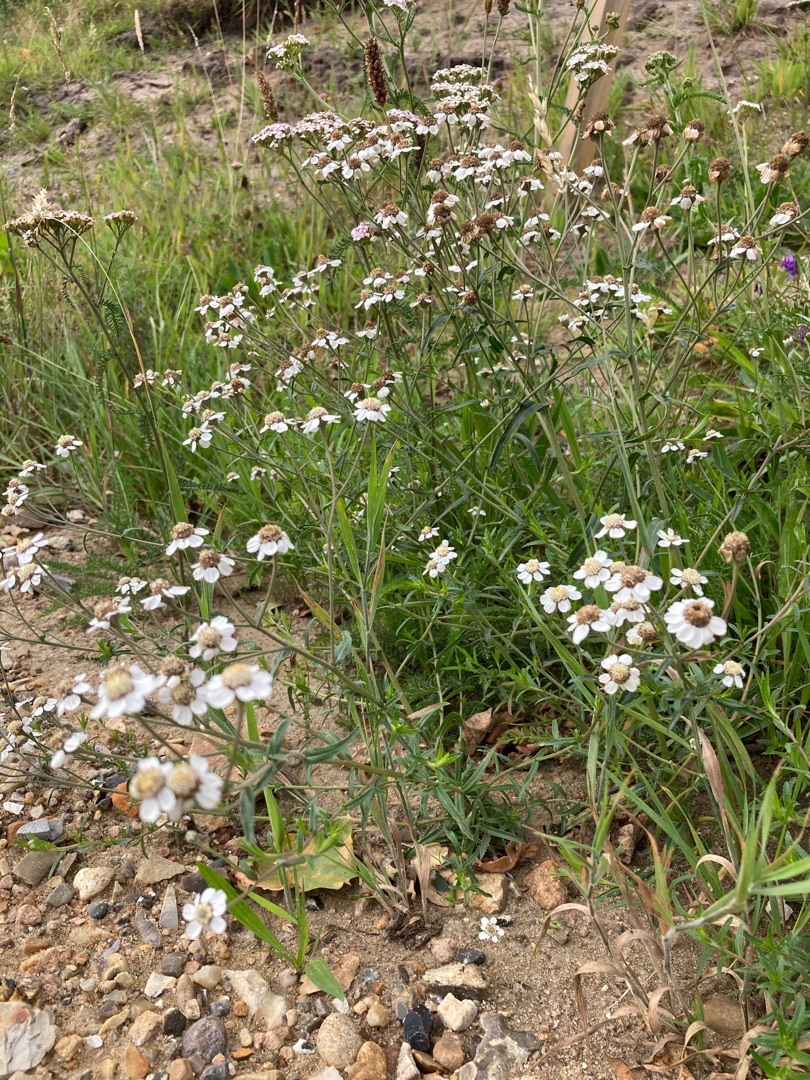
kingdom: Plantae
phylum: Tracheophyta
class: Magnoliopsida
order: Asterales
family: Asteraceae
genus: Achillea
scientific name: Achillea ptarmica
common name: Nyse-røllike
